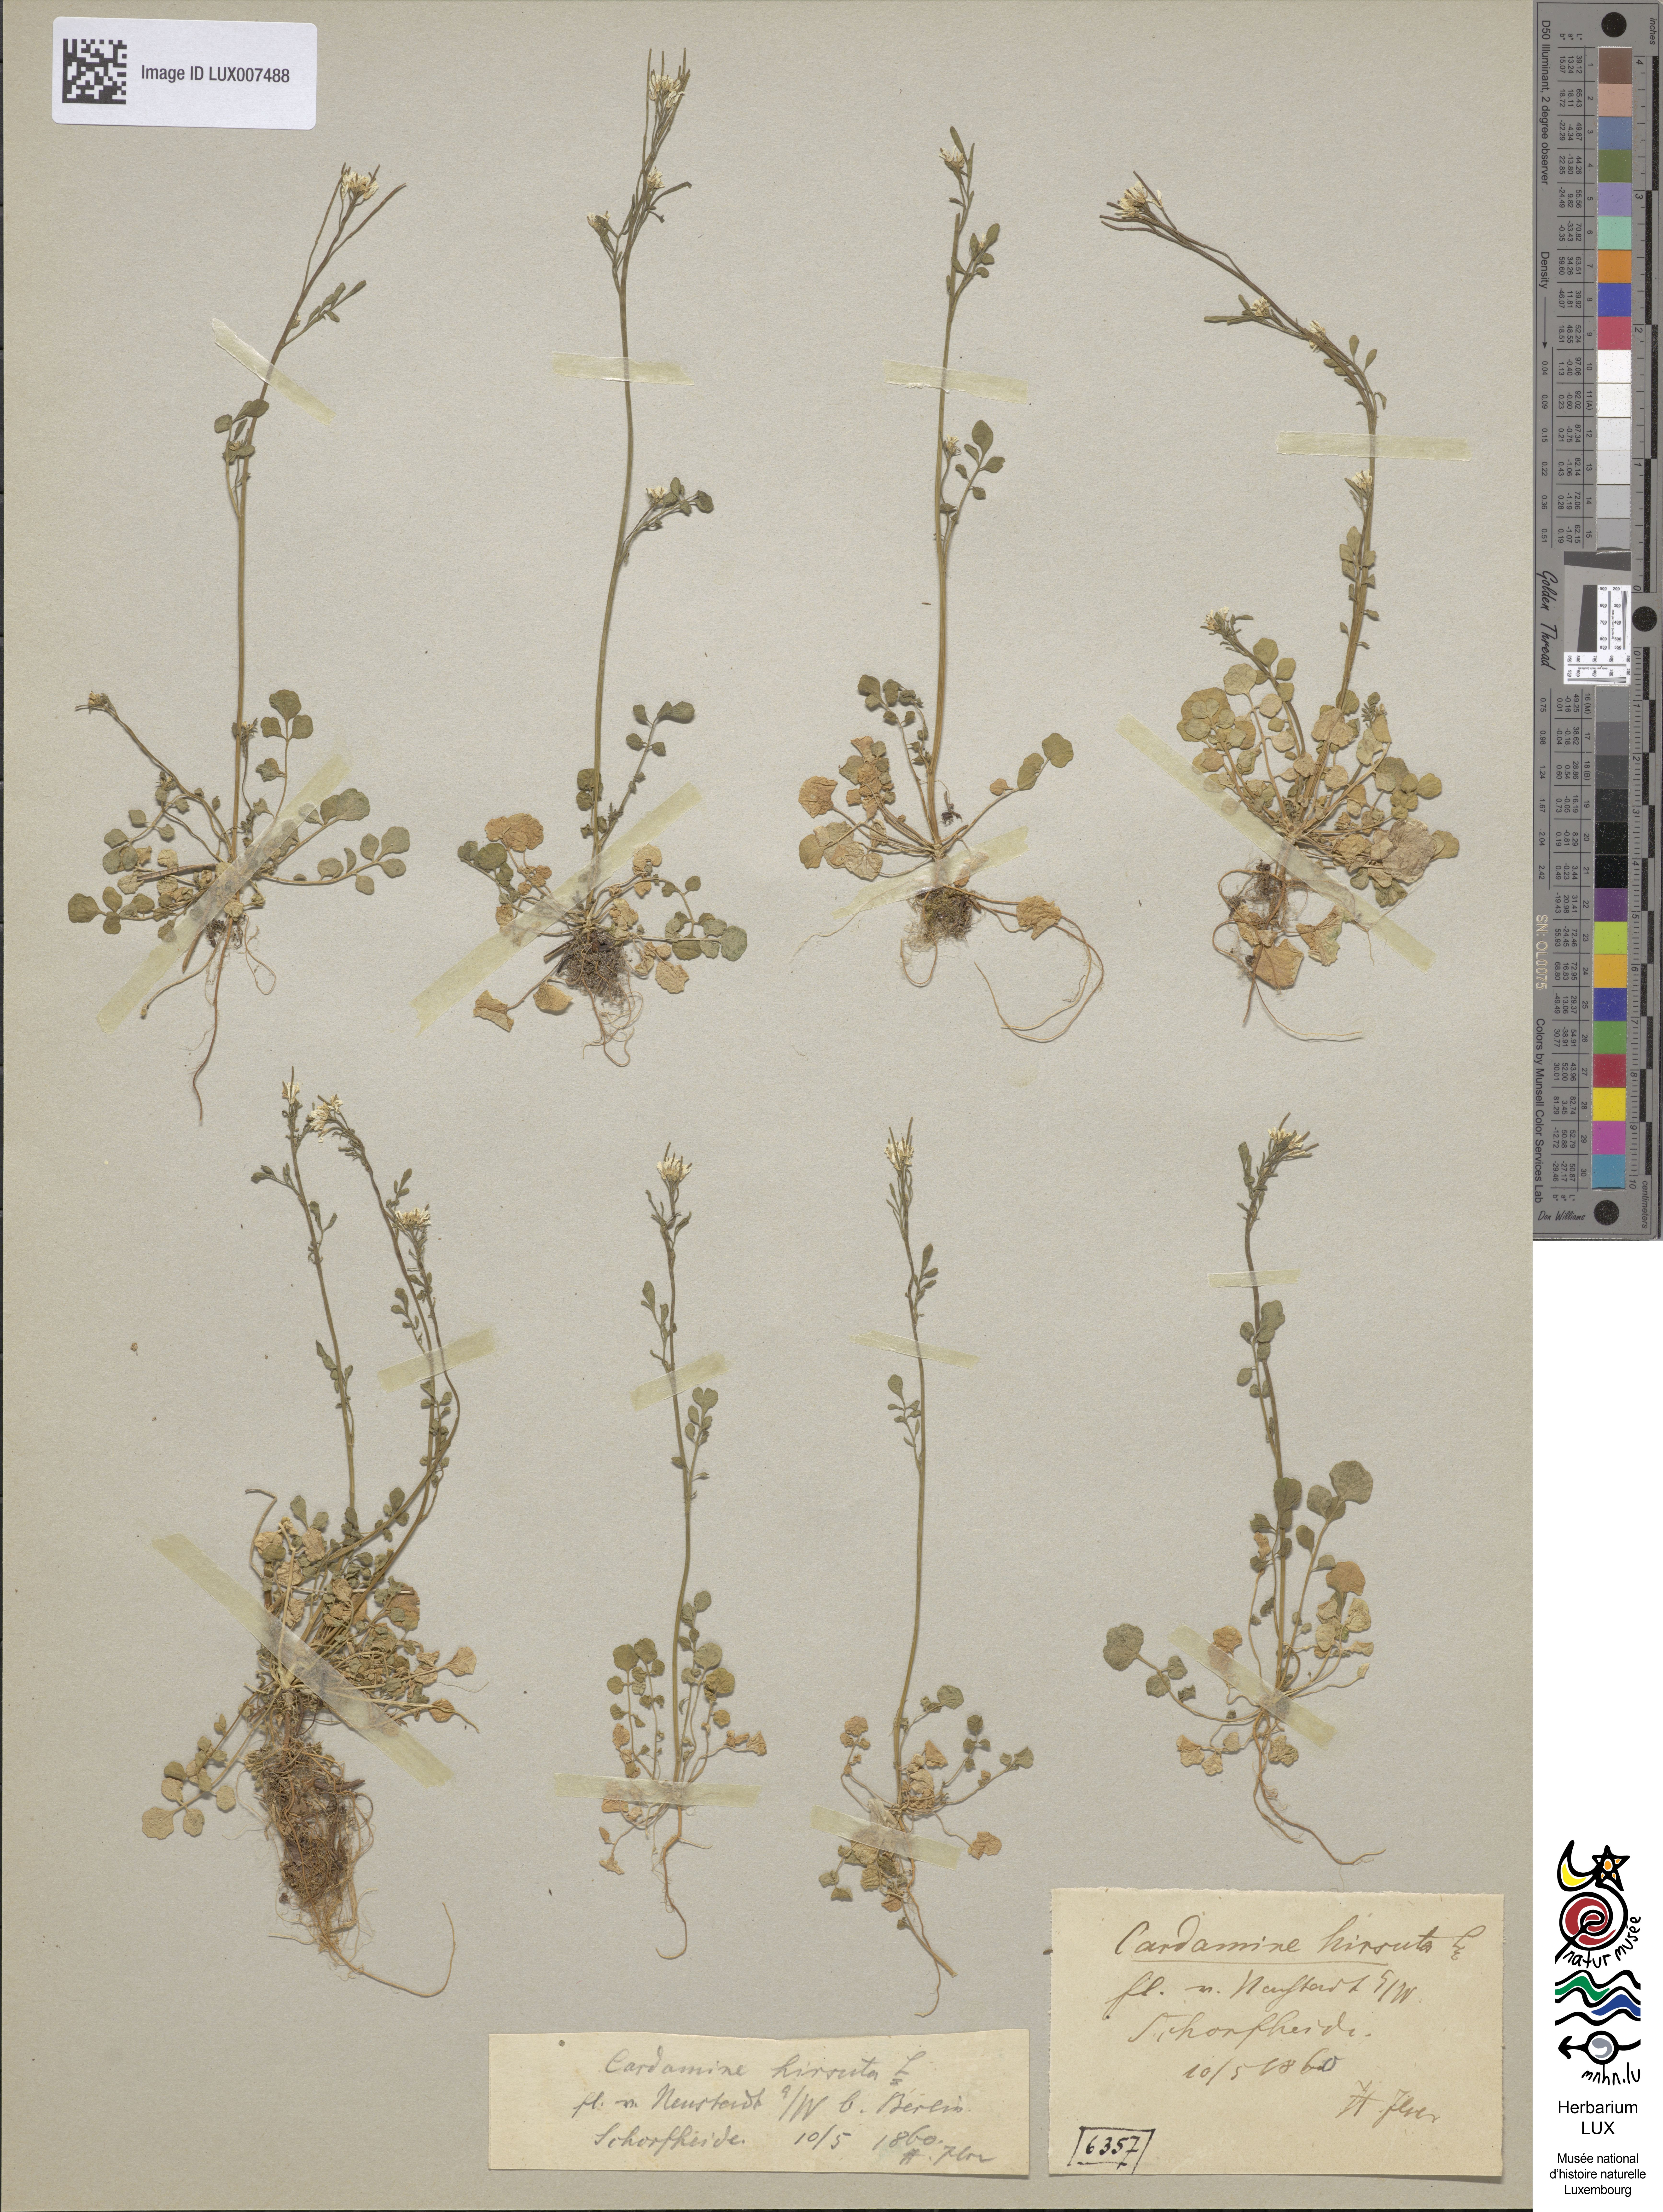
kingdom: Plantae
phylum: Tracheophyta
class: Magnoliopsida
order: Brassicales
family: Brassicaceae
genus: Cardamine
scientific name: Cardamine hirsuta
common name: Hairy bittercress
